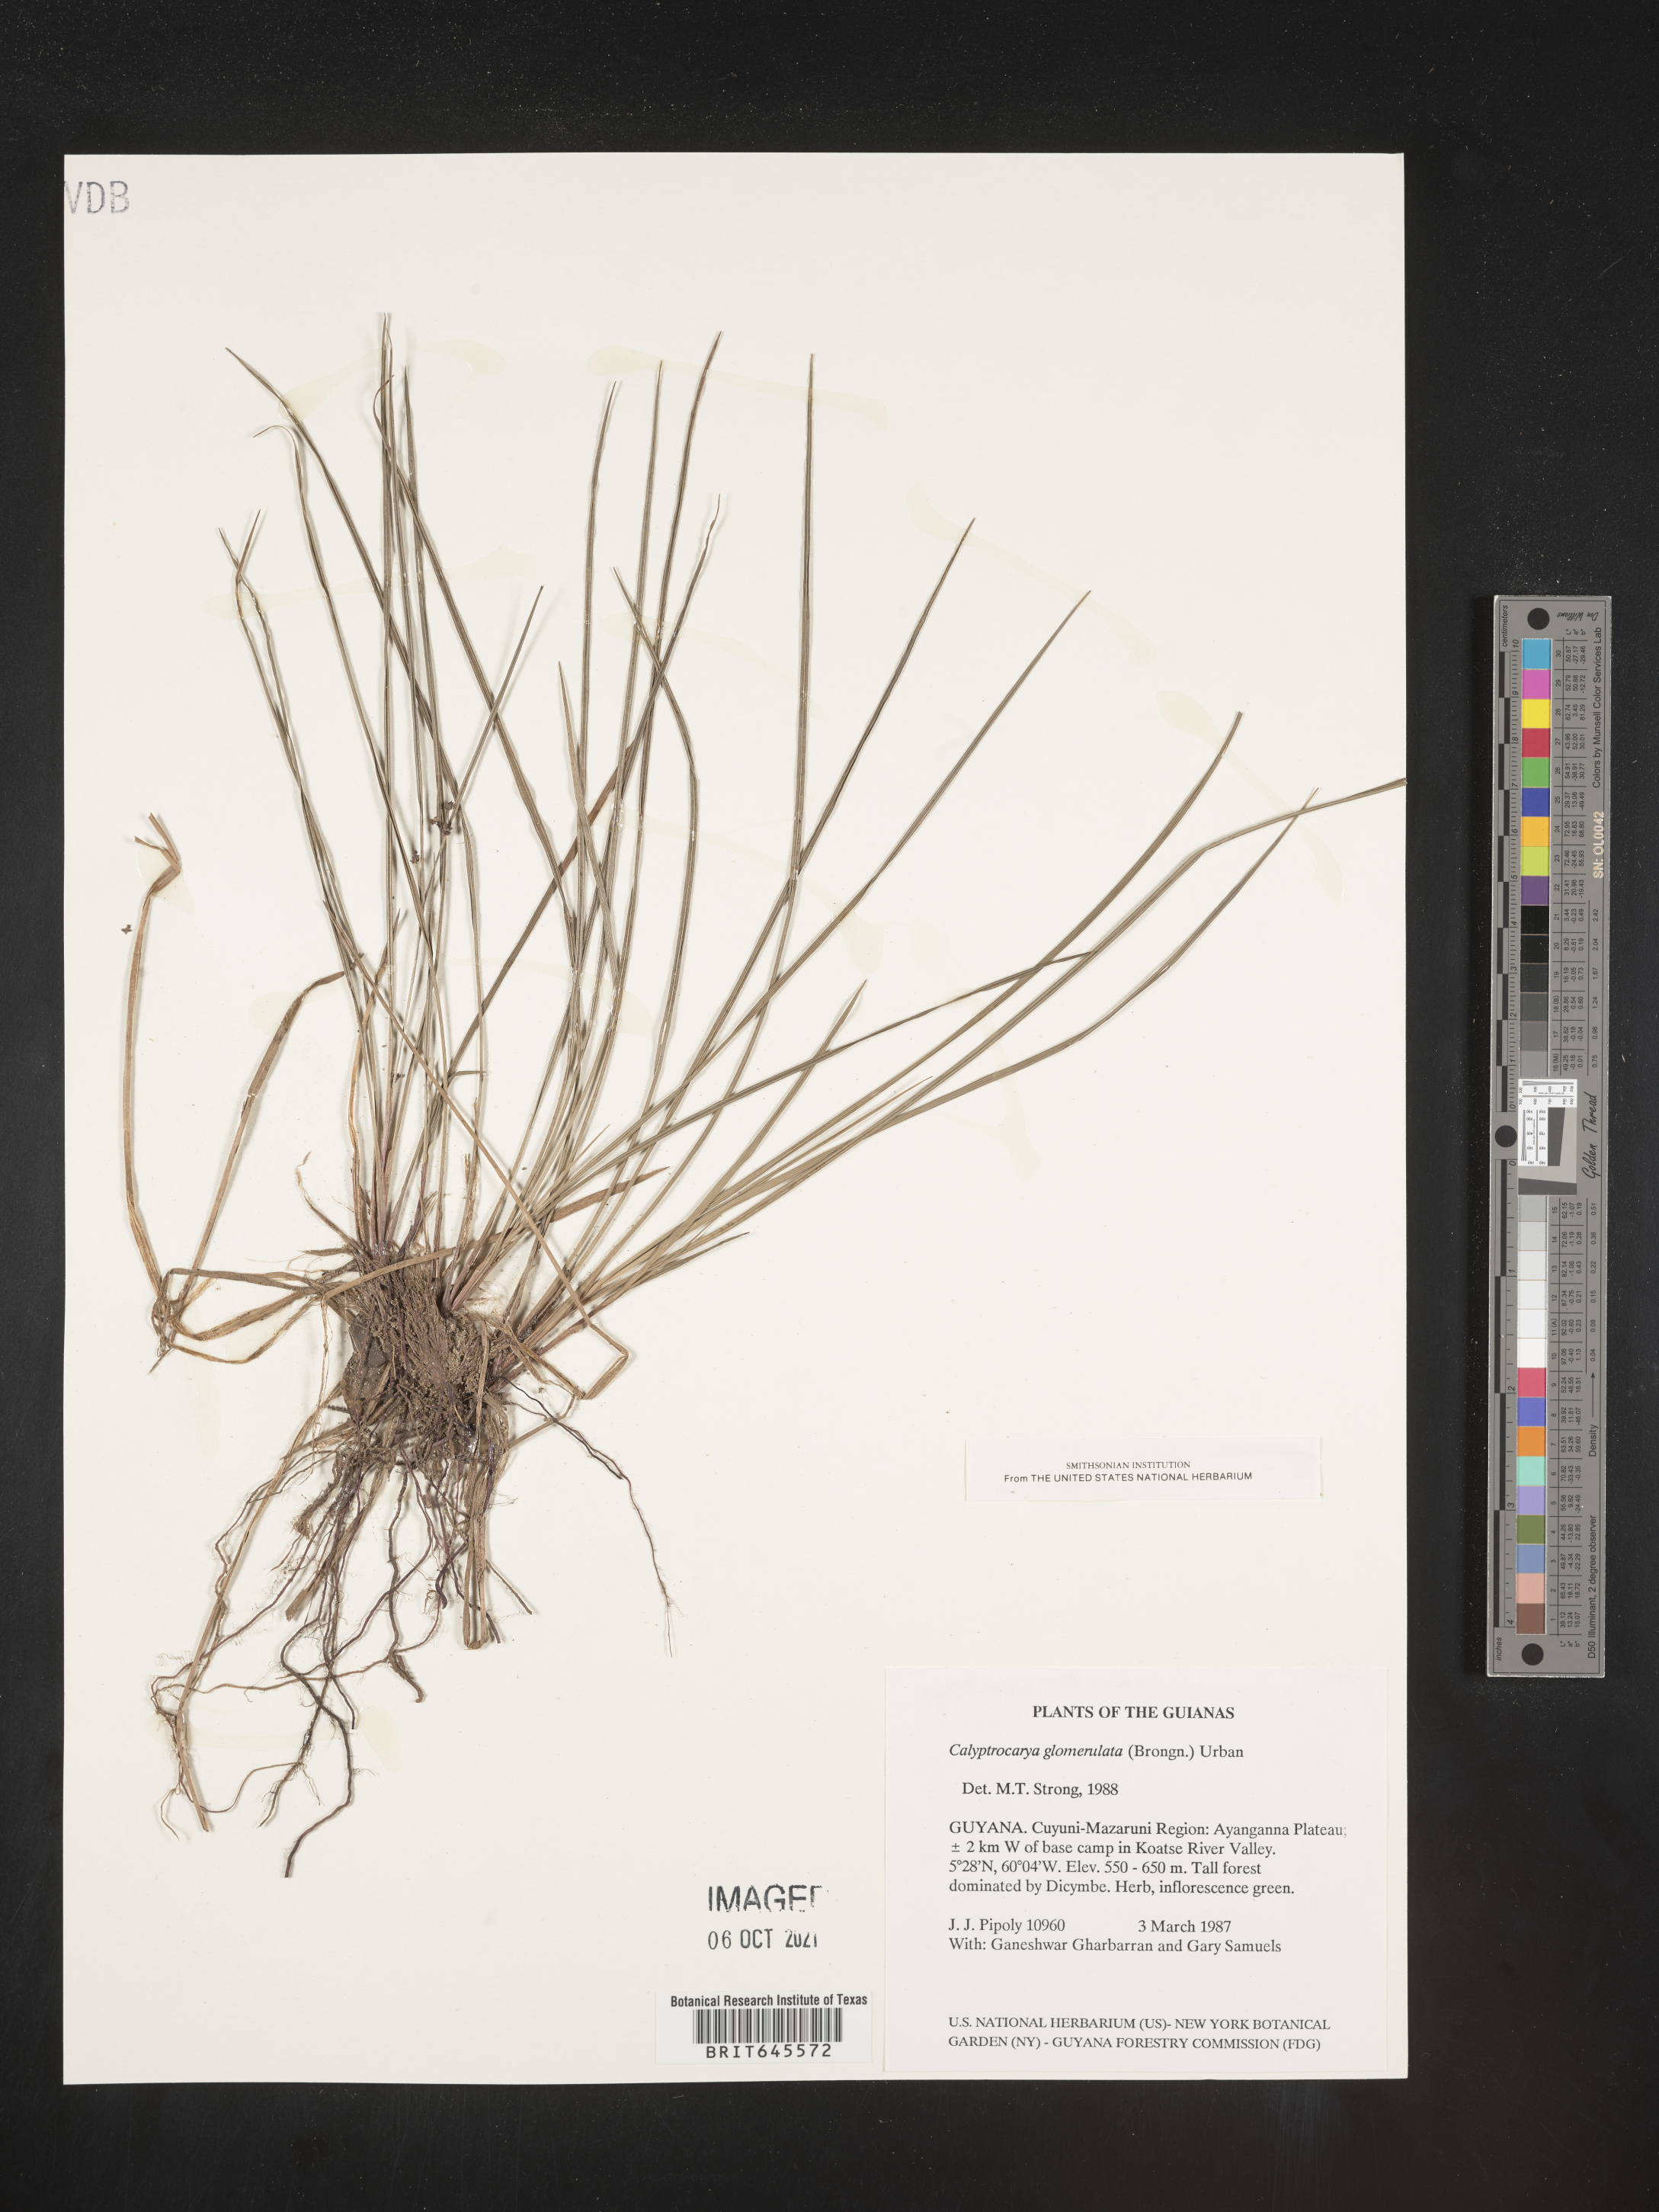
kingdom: Plantae
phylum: Tracheophyta
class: Liliopsida
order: Poales
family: Cyperaceae
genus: Calyptrocarya
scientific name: Calyptrocarya glomerulata
